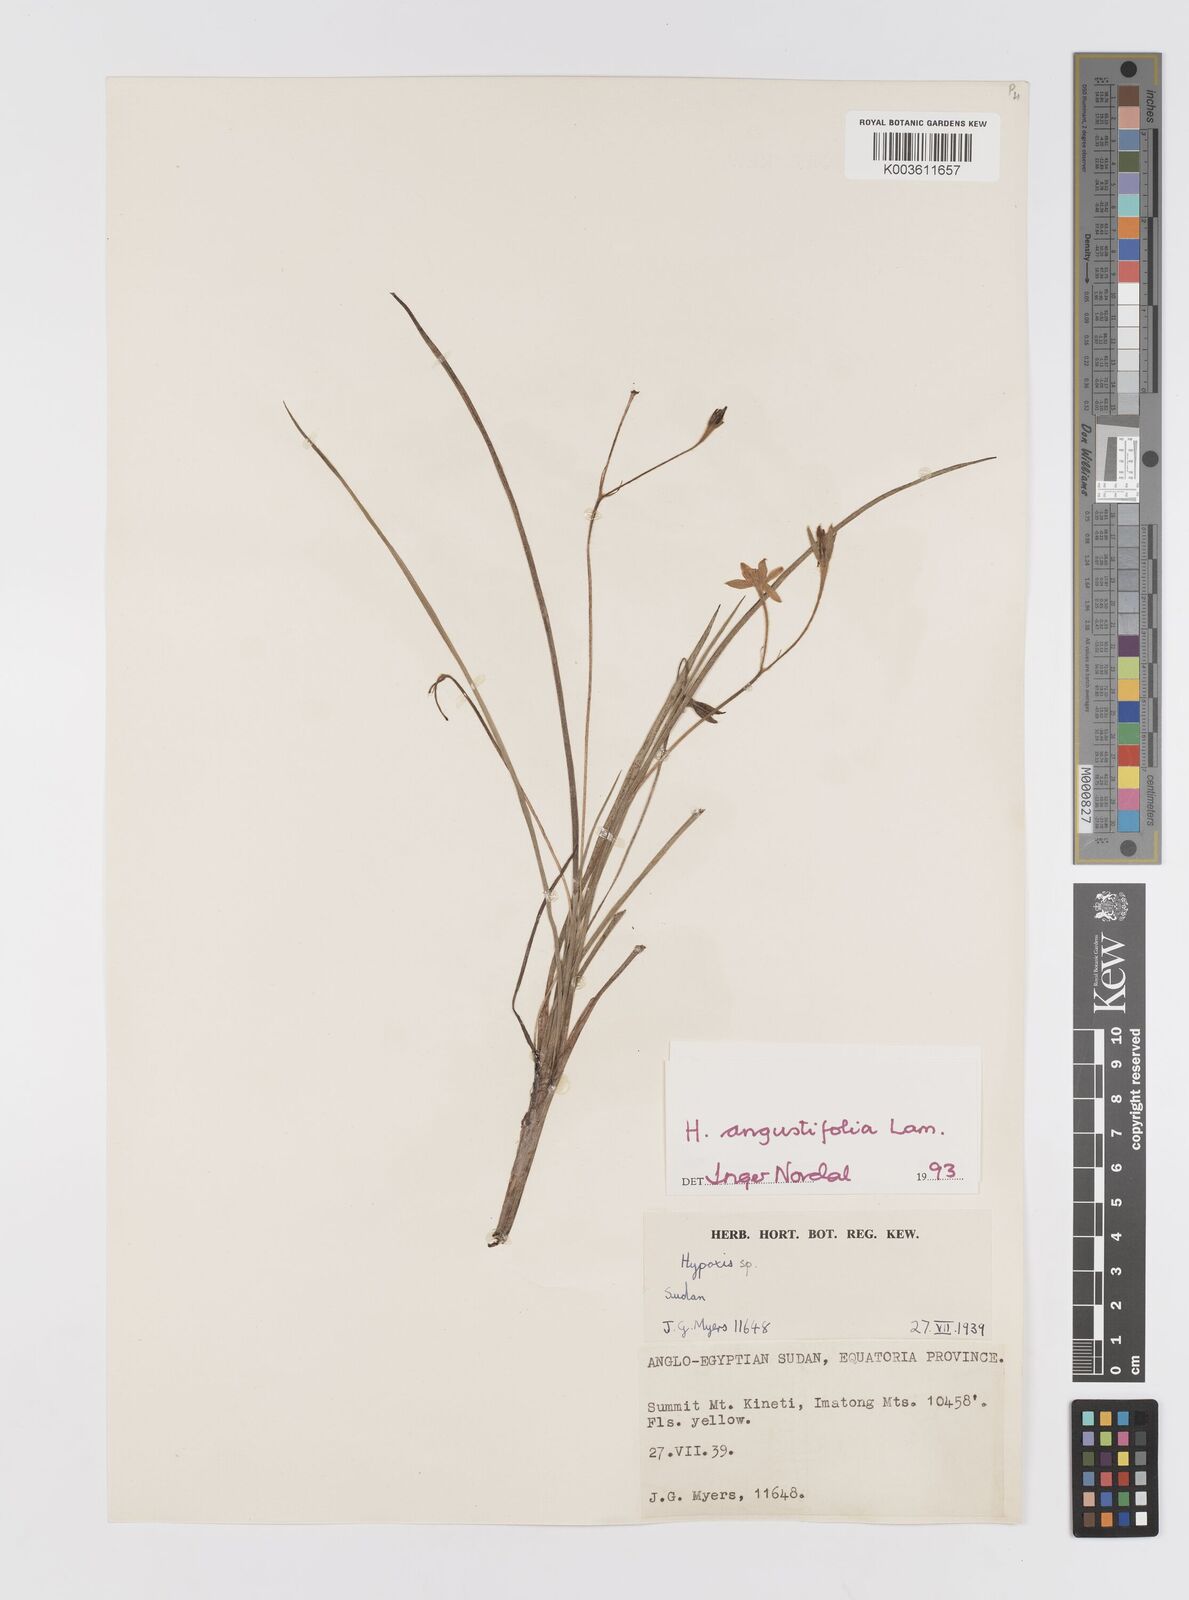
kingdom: Plantae
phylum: Tracheophyta
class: Liliopsida
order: Asparagales
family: Hypoxidaceae
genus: Hypoxis
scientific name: Hypoxis angustifolia
